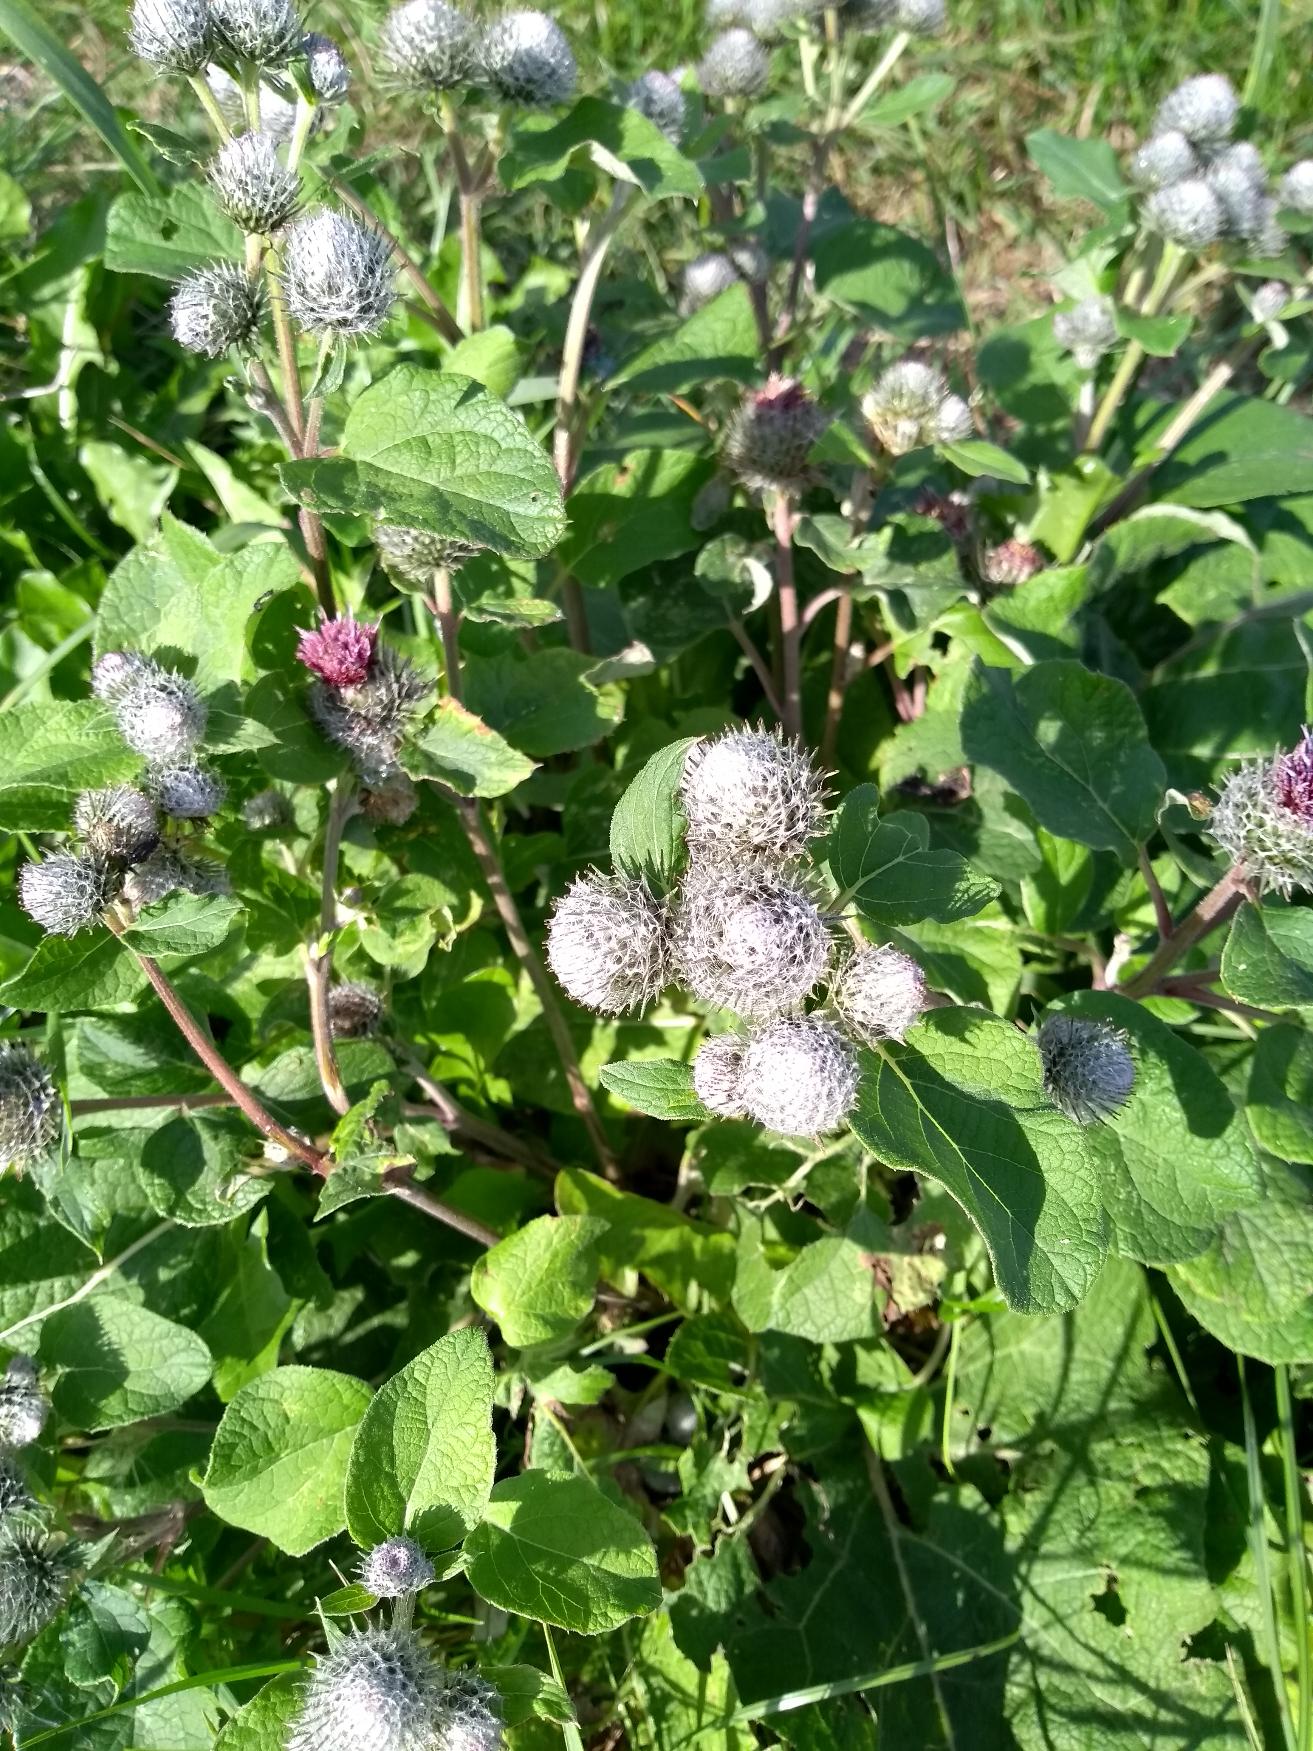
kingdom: Plantae
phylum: Tracheophyta
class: Magnoliopsida
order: Asterales
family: Asteraceae
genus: Arctium
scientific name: Arctium tomentosum
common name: Filtet burre
